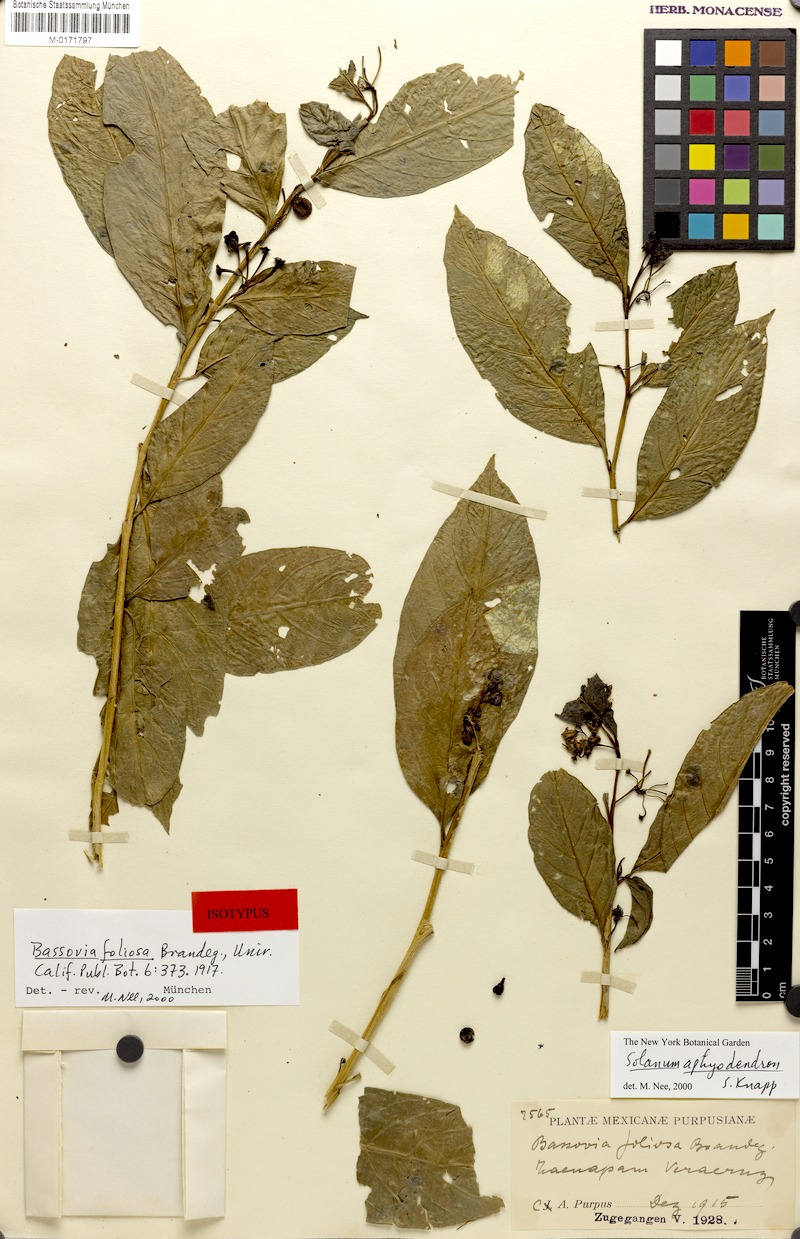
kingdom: Plantae
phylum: Tracheophyta
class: Magnoliopsida
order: Solanales
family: Solanaceae
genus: Solanum
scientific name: Solanum aphyodendron
